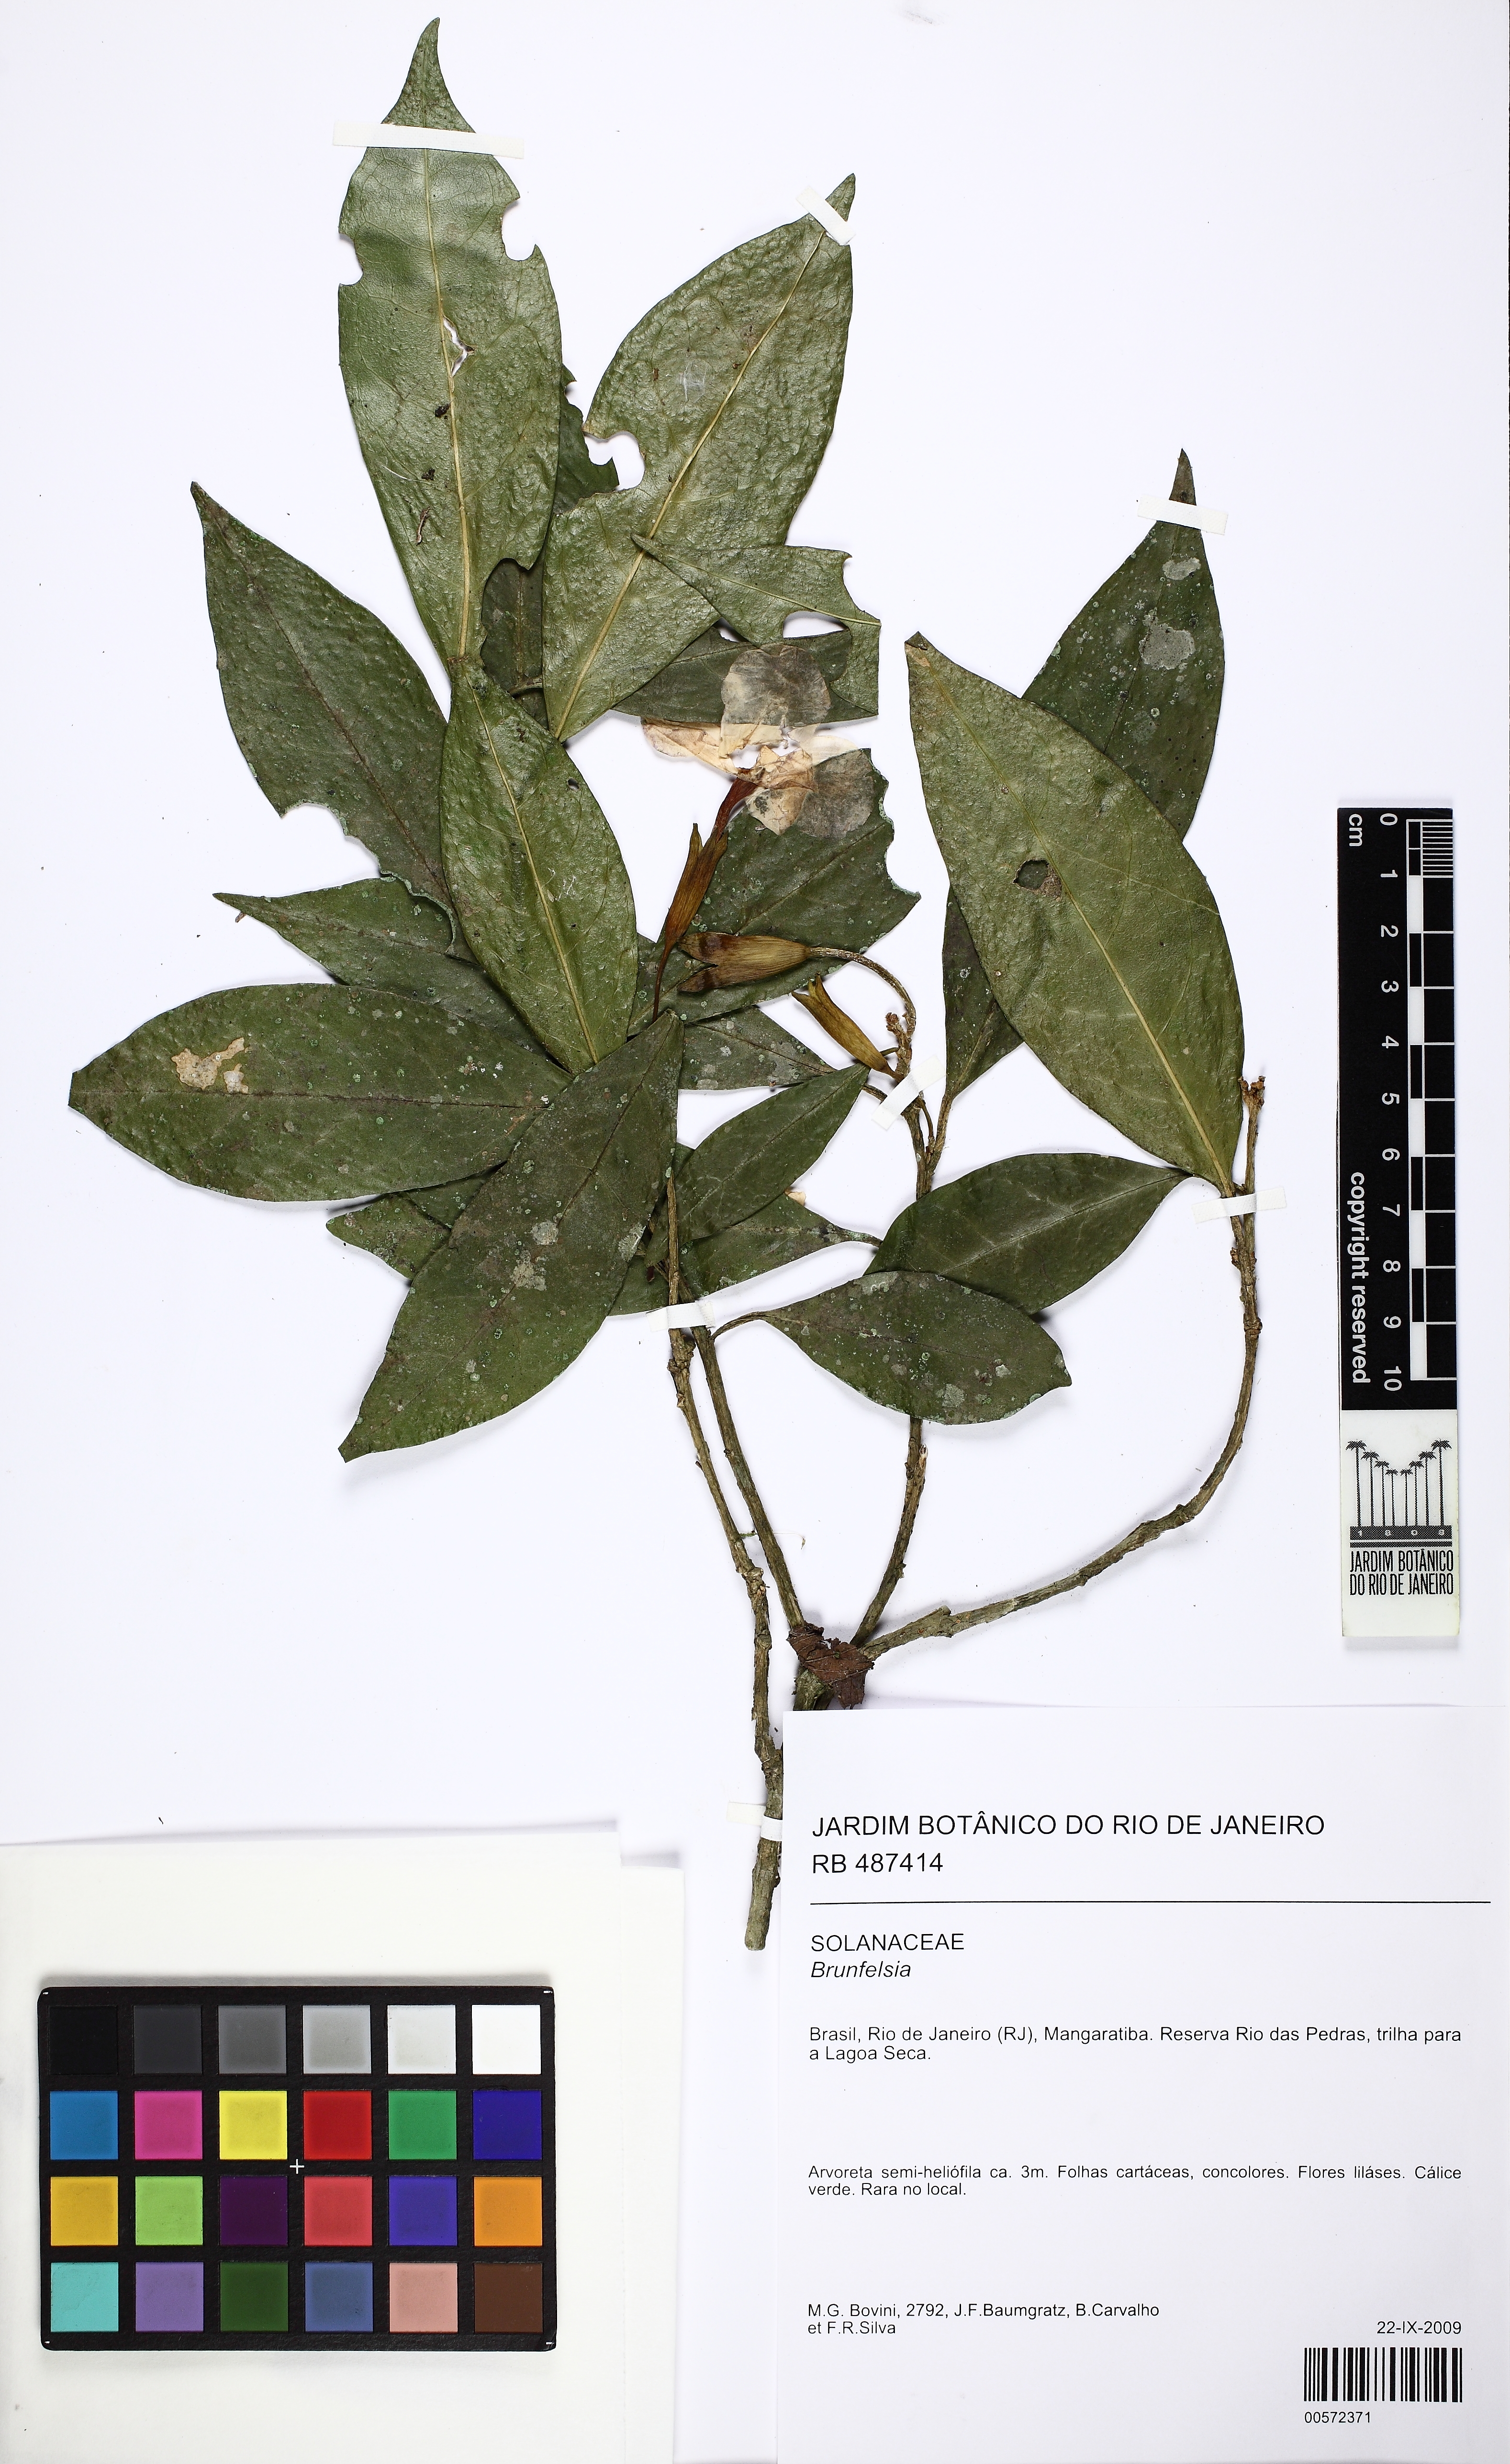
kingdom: Plantae
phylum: Tracheophyta
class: Magnoliopsida
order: Solanales
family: Solanaceae
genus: Brunfelsia
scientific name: Brunfelsia pauciflora
